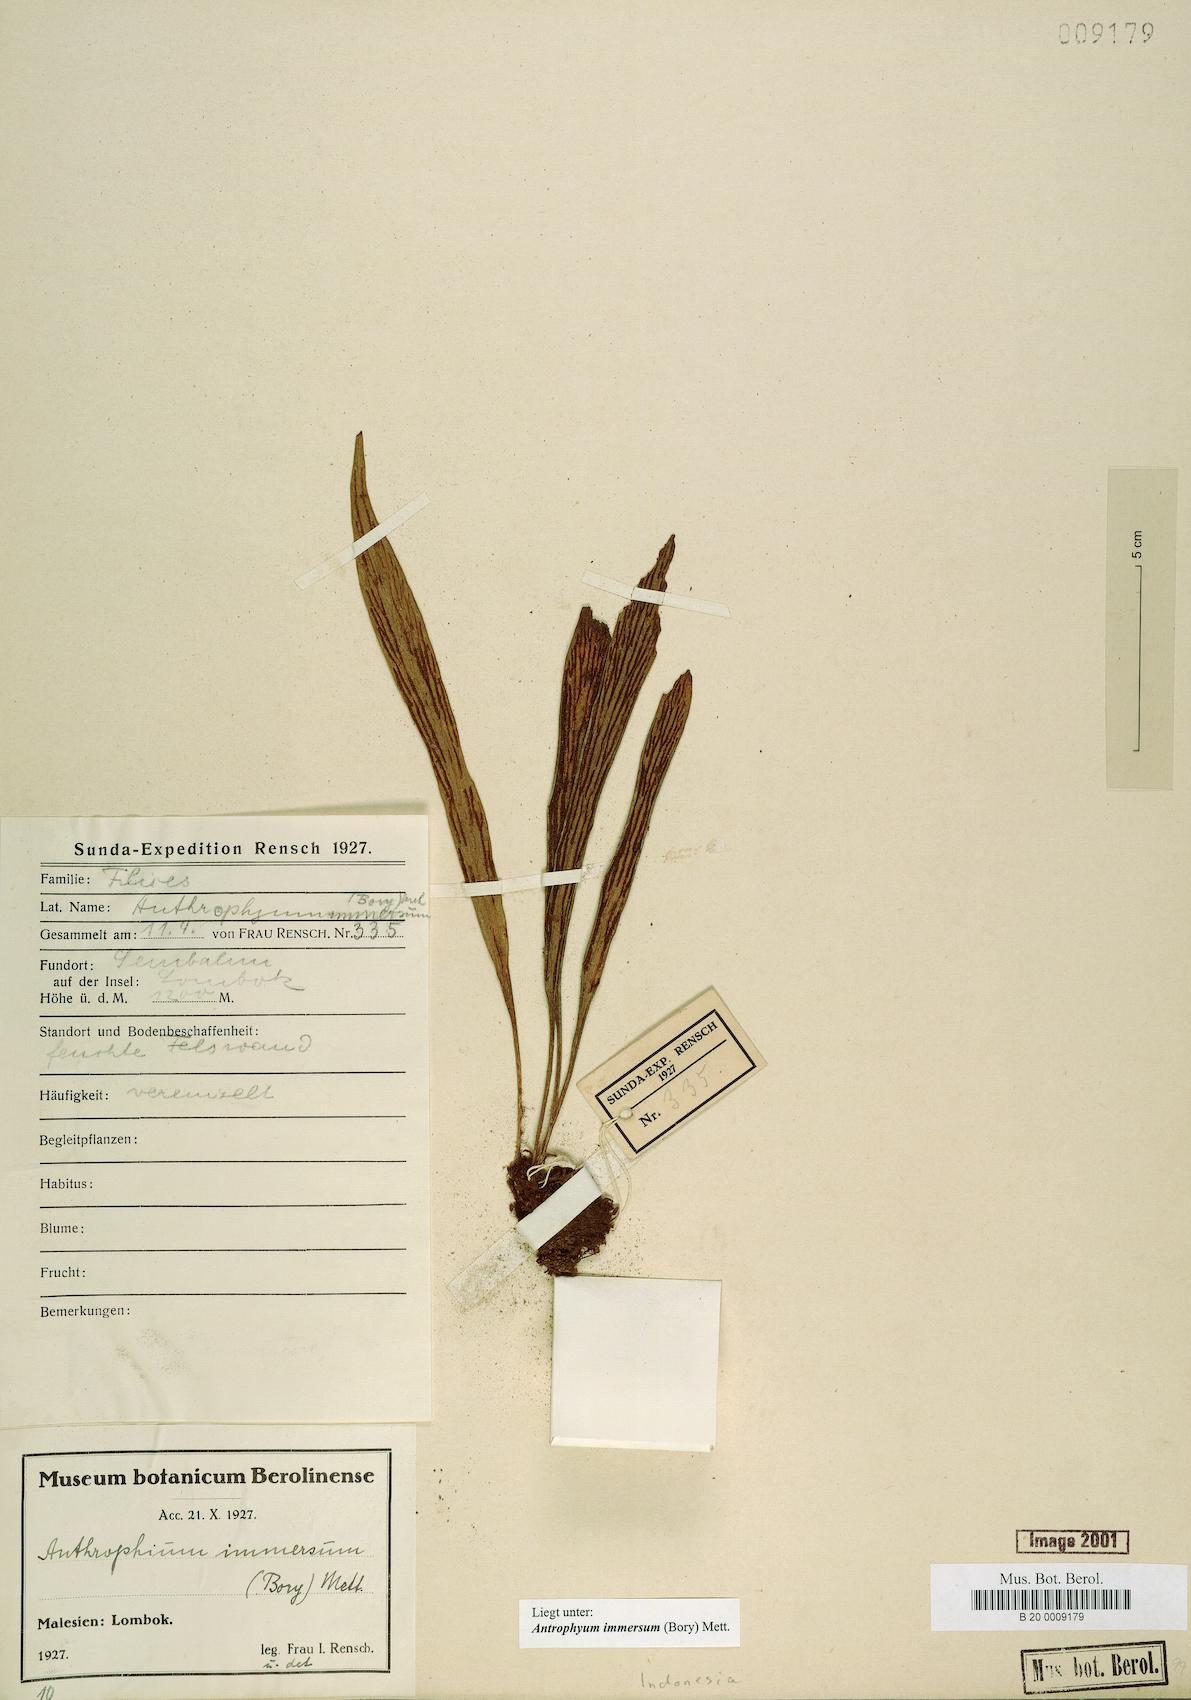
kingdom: Plantae
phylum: Tracheophyta
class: Polypodiopsida
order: Polypodiales
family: Pteridaceae
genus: Antrophyum
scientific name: Antrophyum parvulum
